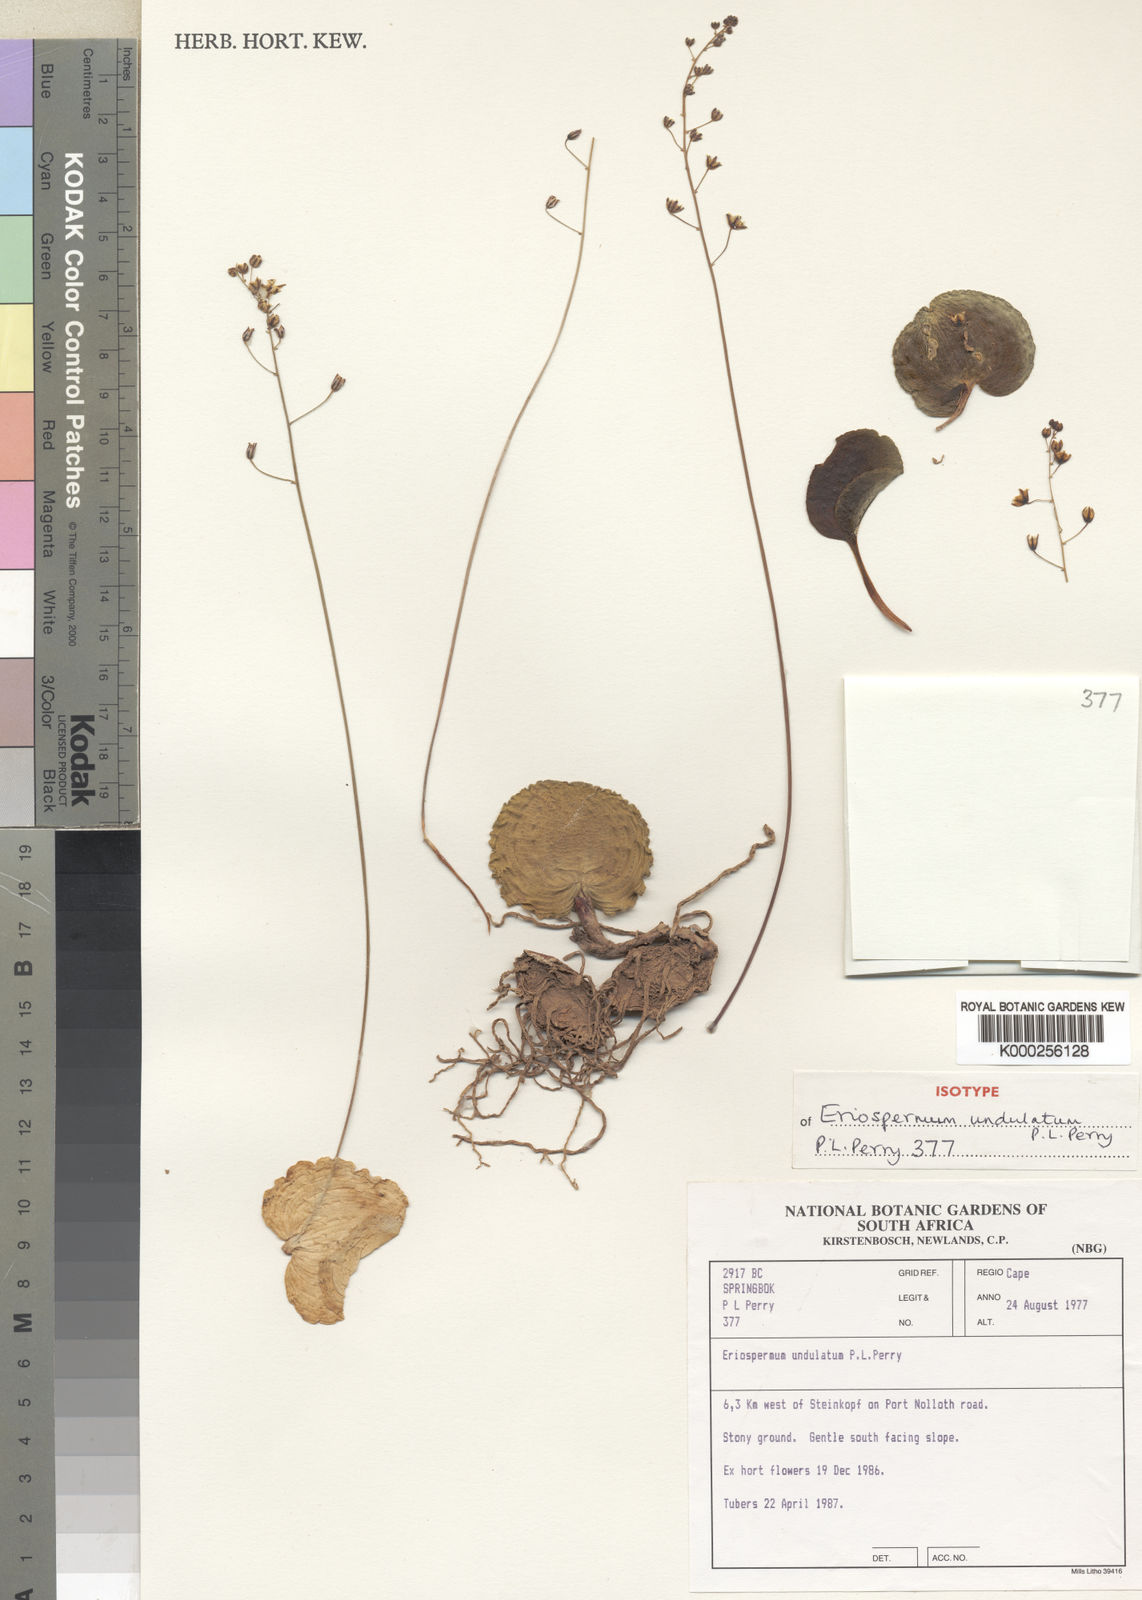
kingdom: Plantae
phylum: Tracheophyta
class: Liliopsida
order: Asparagales
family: Asparagaceae
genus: Eriospermum
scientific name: Eriospermum undulatum
